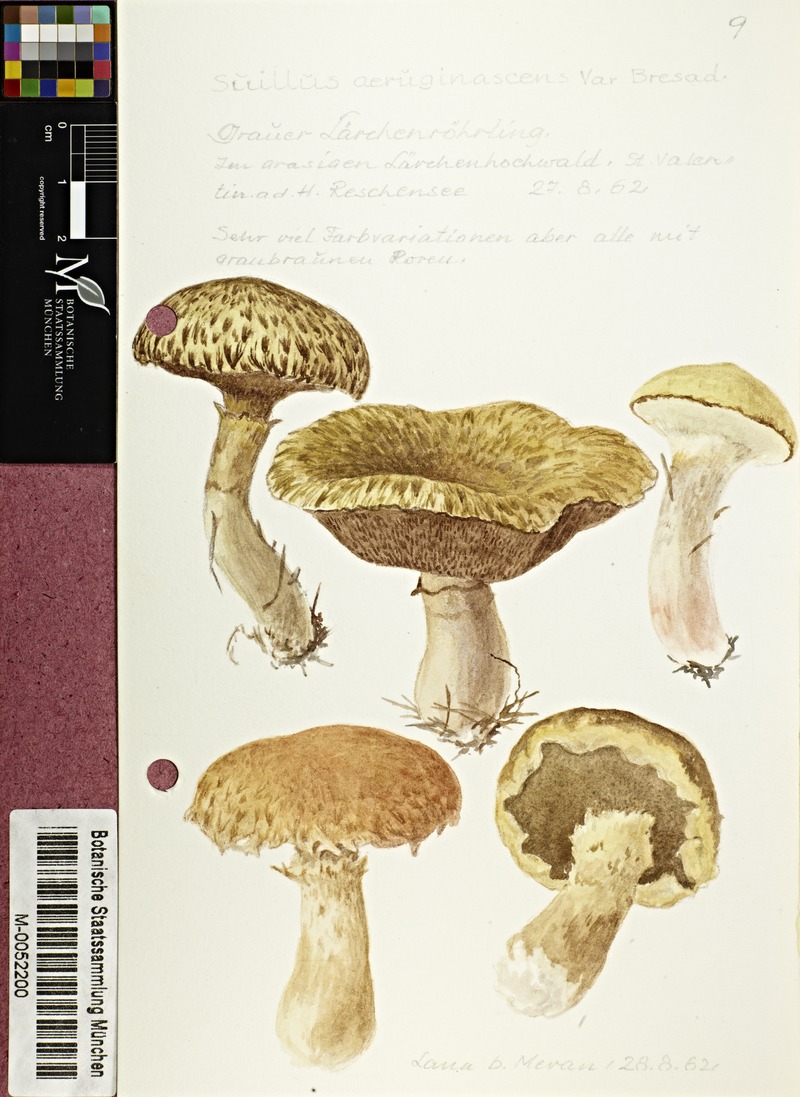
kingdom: Fungi
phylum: Basidiomycota
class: Agaricomycetes
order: Boletales
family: Suillaceae
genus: Suillus
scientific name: Suillus bresadolae
